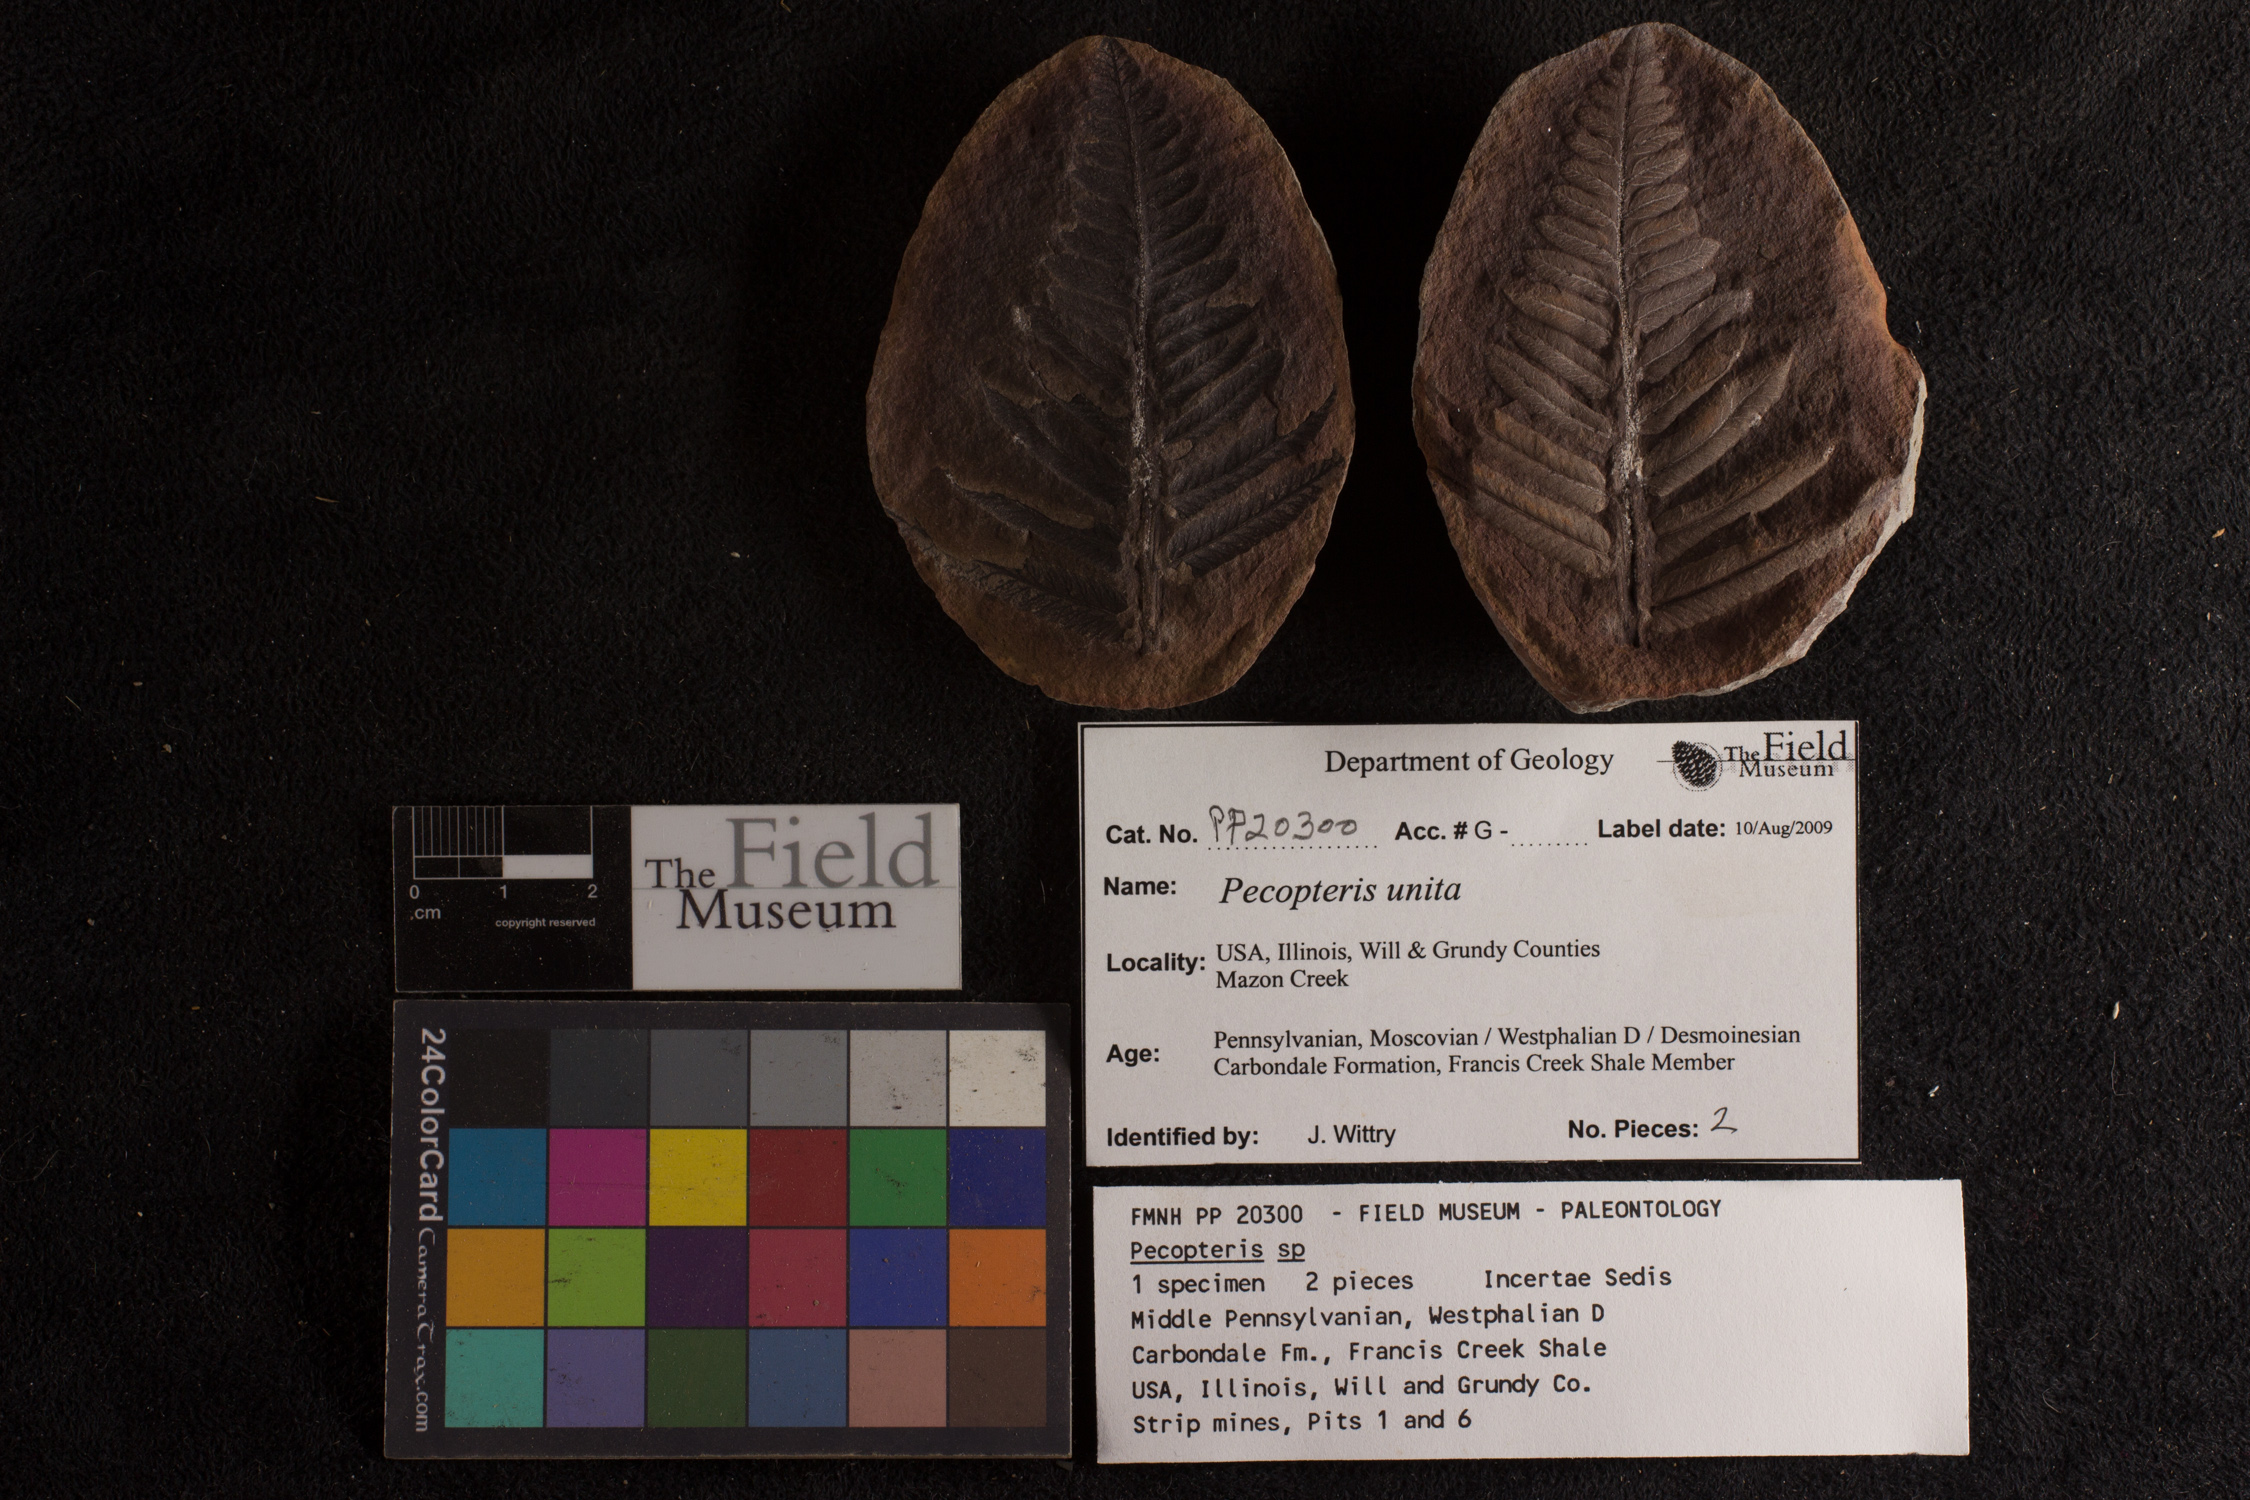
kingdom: Plantae
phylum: Tracheophyta
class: Polypodiopsida
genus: Diplazites
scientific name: Diplazites
